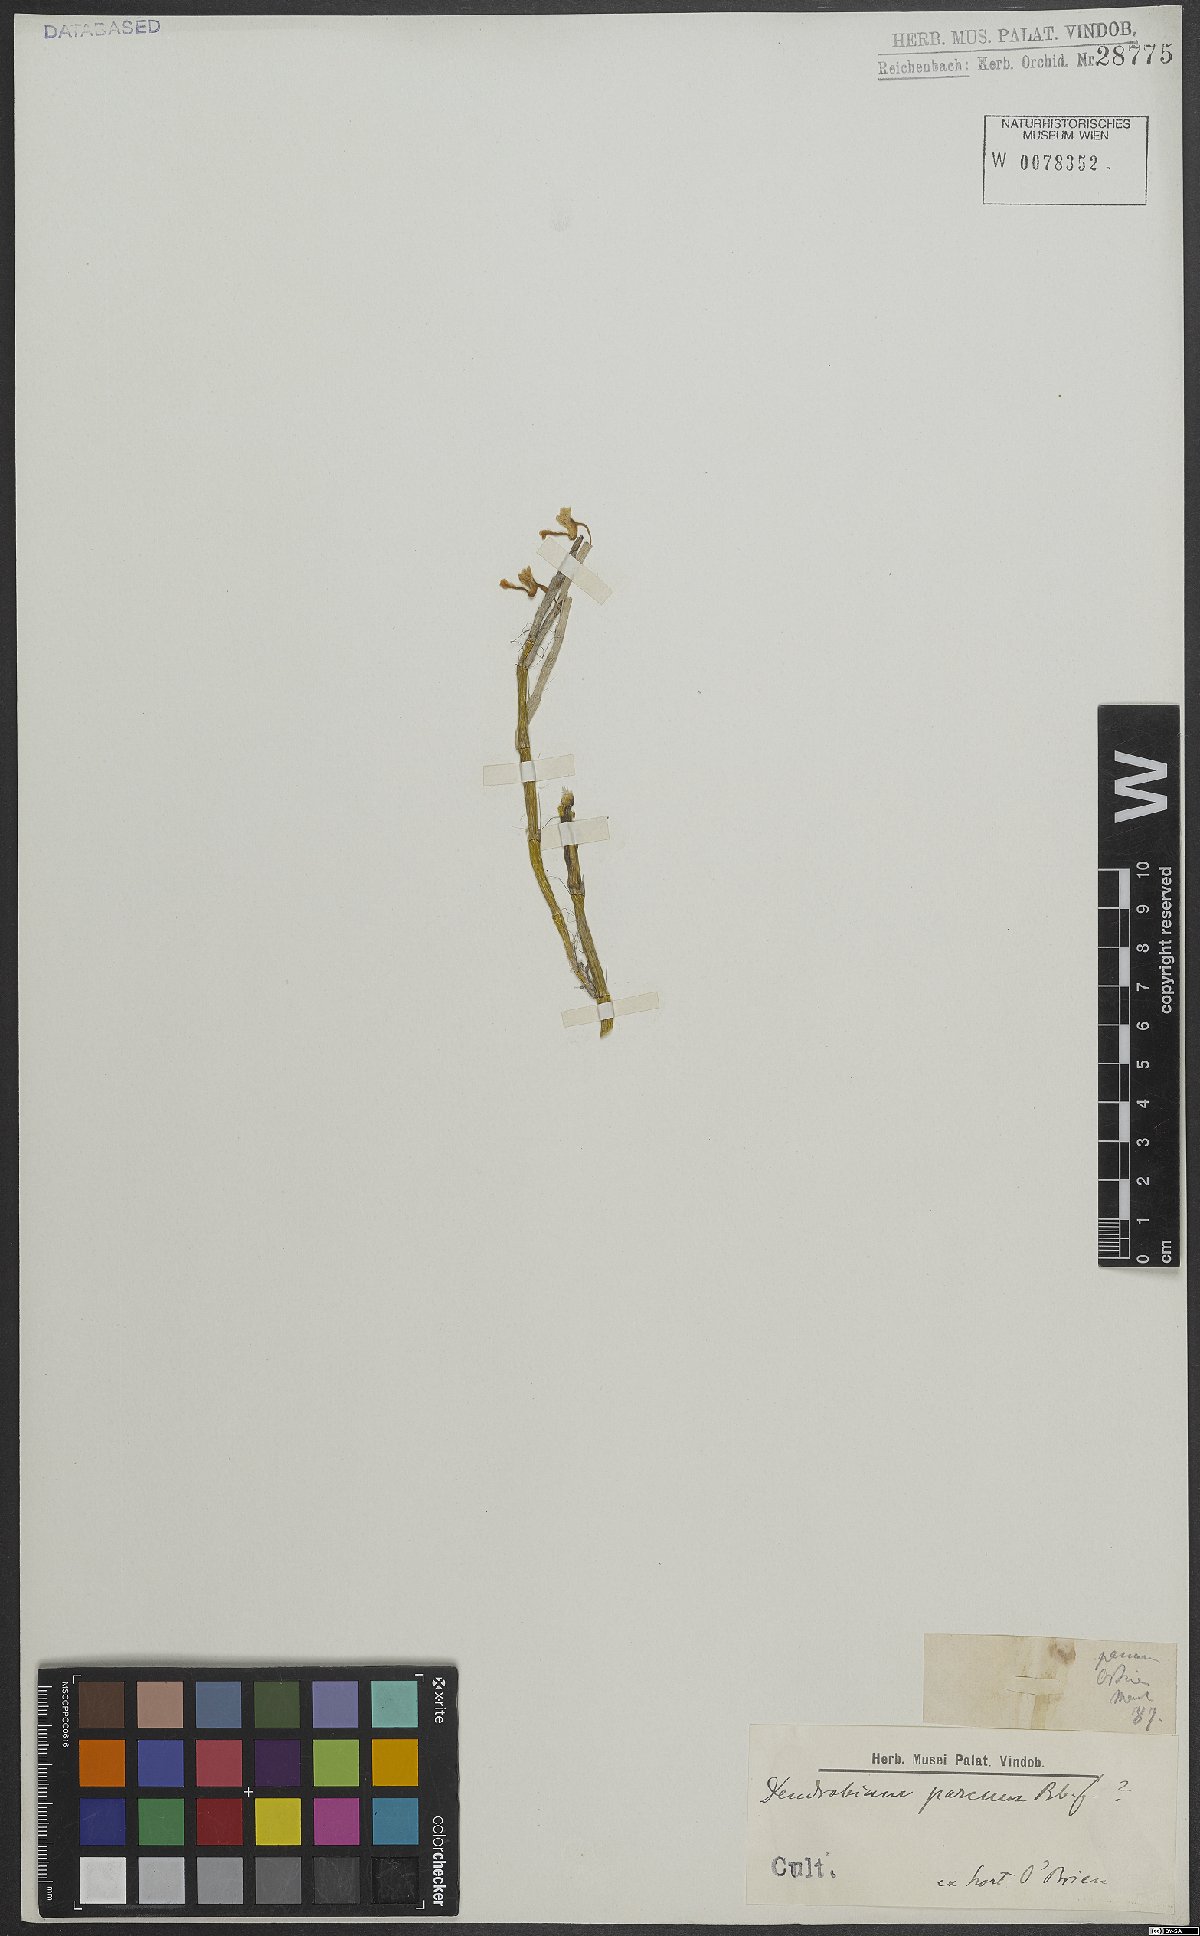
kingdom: Plantae
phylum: Tracheophyta
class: Liliopsida
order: Asparagales
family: Orchidaceae
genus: Dendrobium
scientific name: Dendrobium parcum
